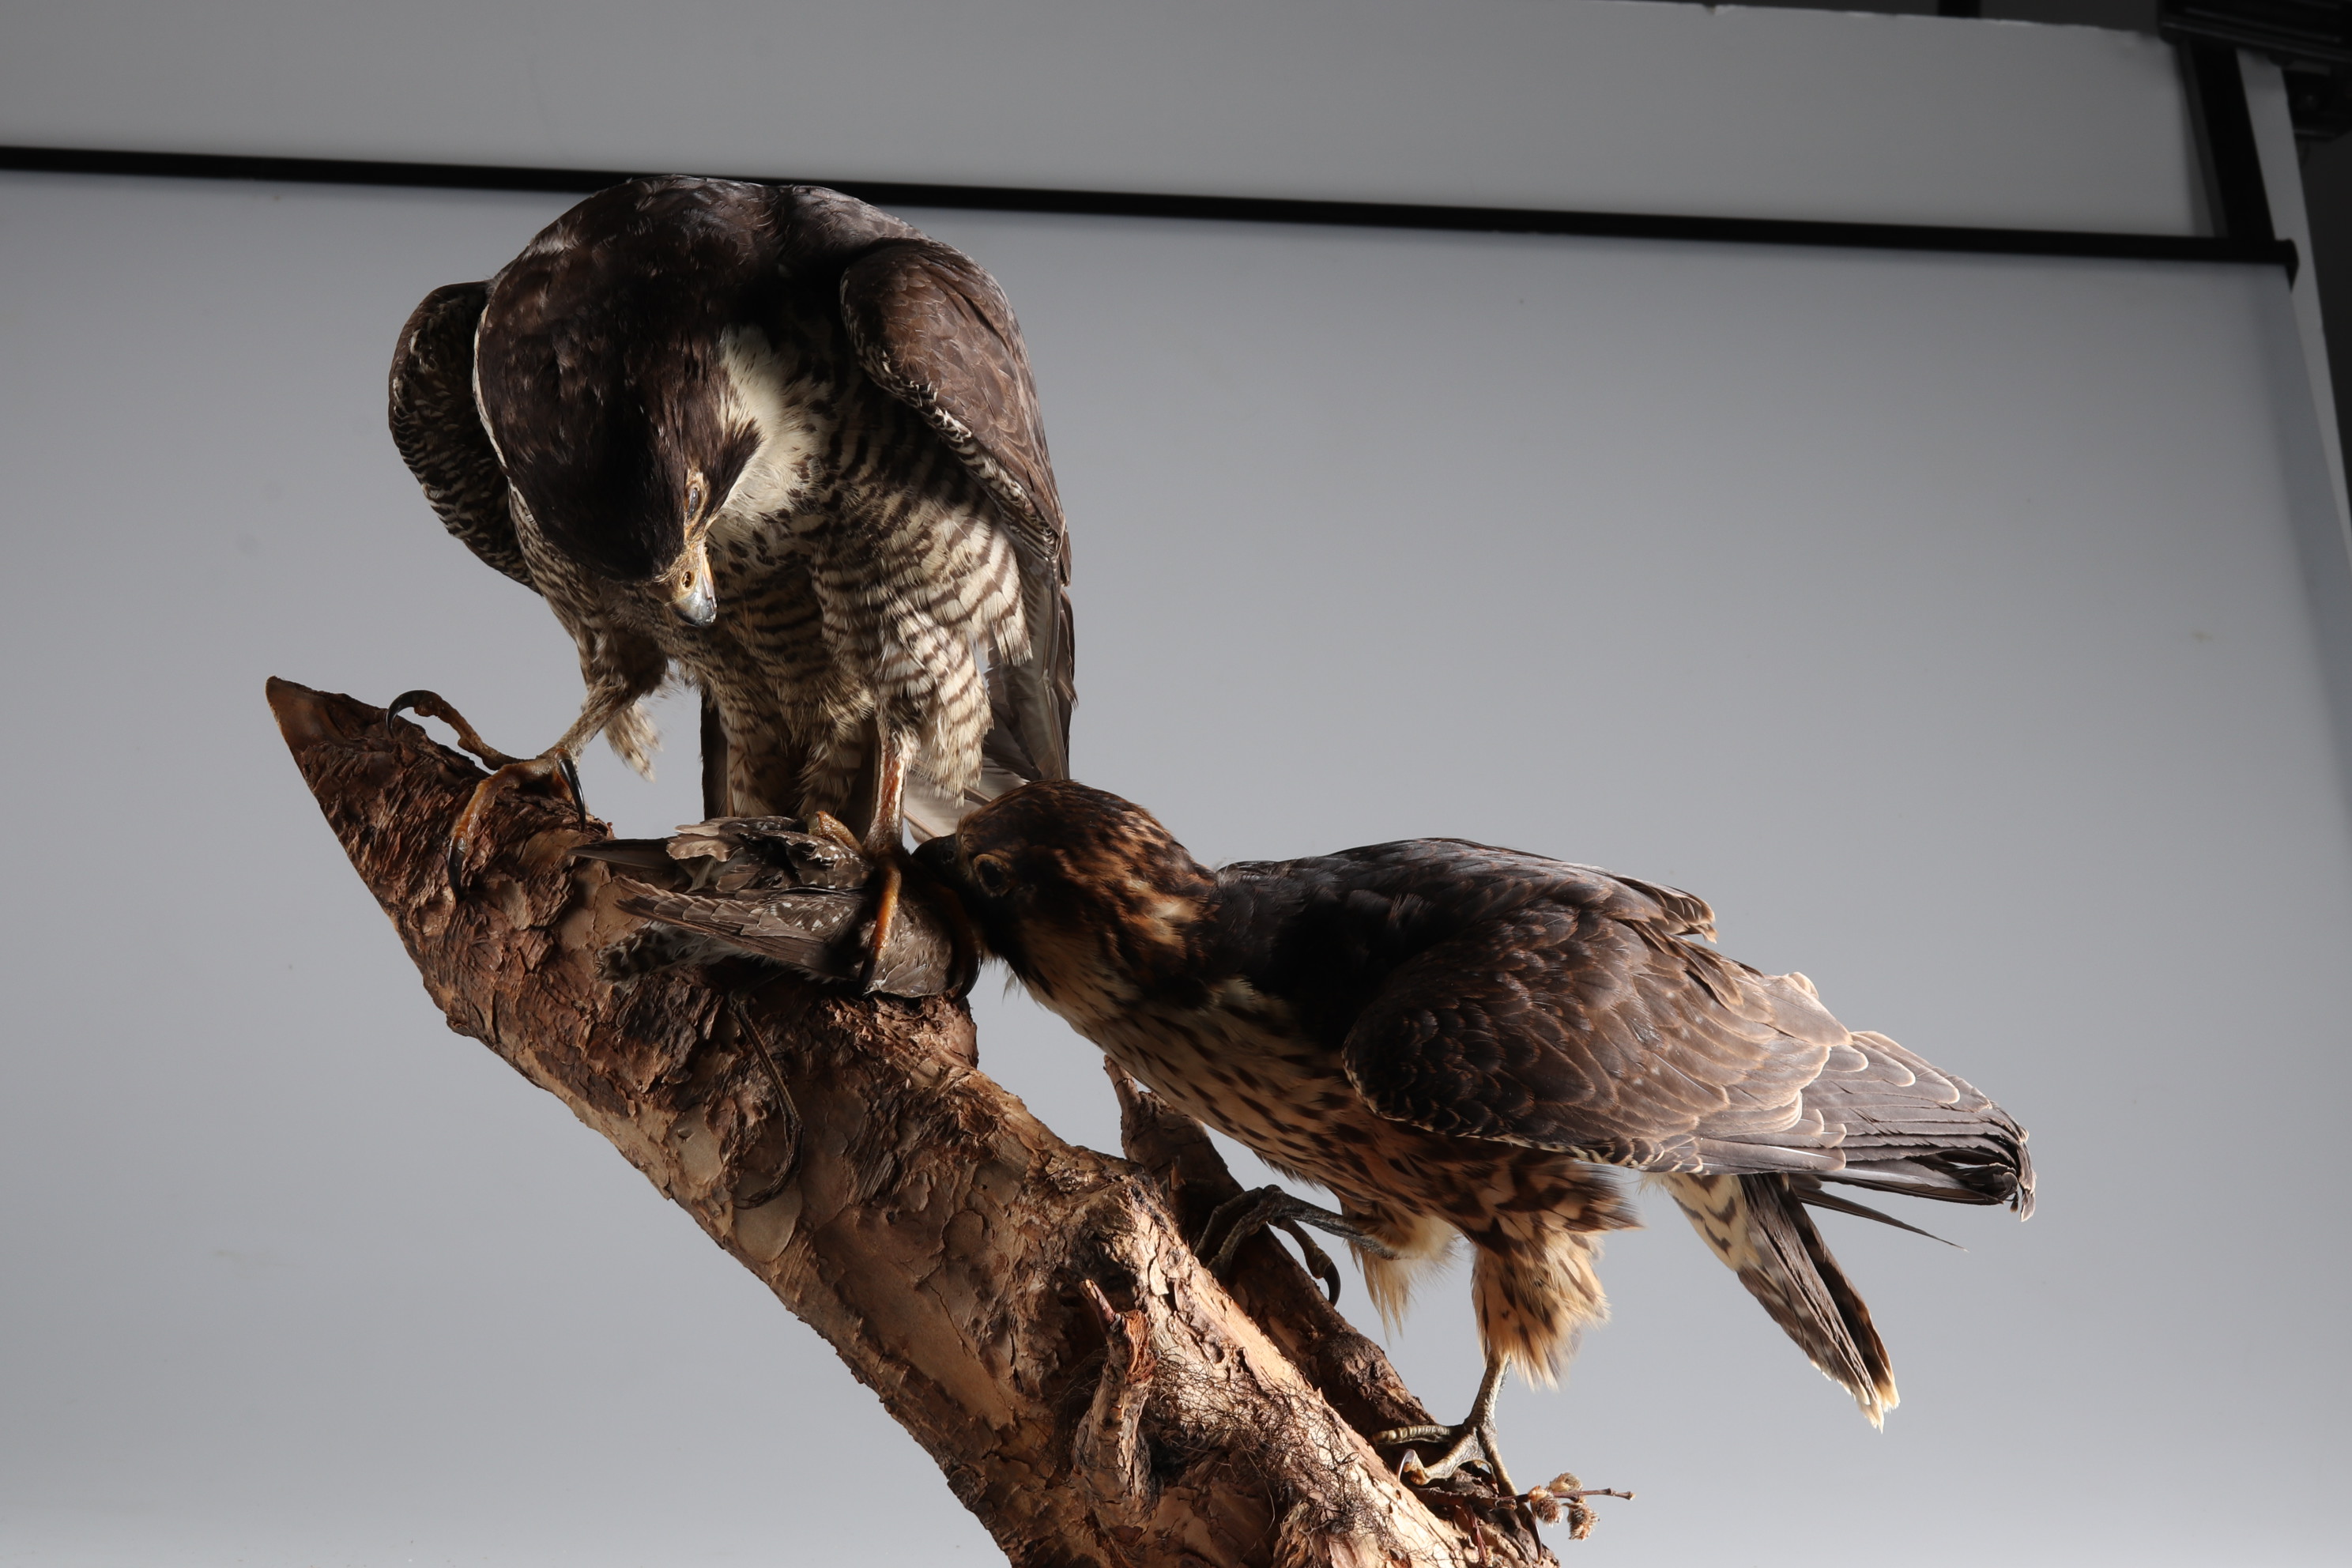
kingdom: Animalia
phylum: Chordata
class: Aves
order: Falconiformes
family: Falconidae
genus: Falco
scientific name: Falco peregrinus
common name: Peregrine falcon
